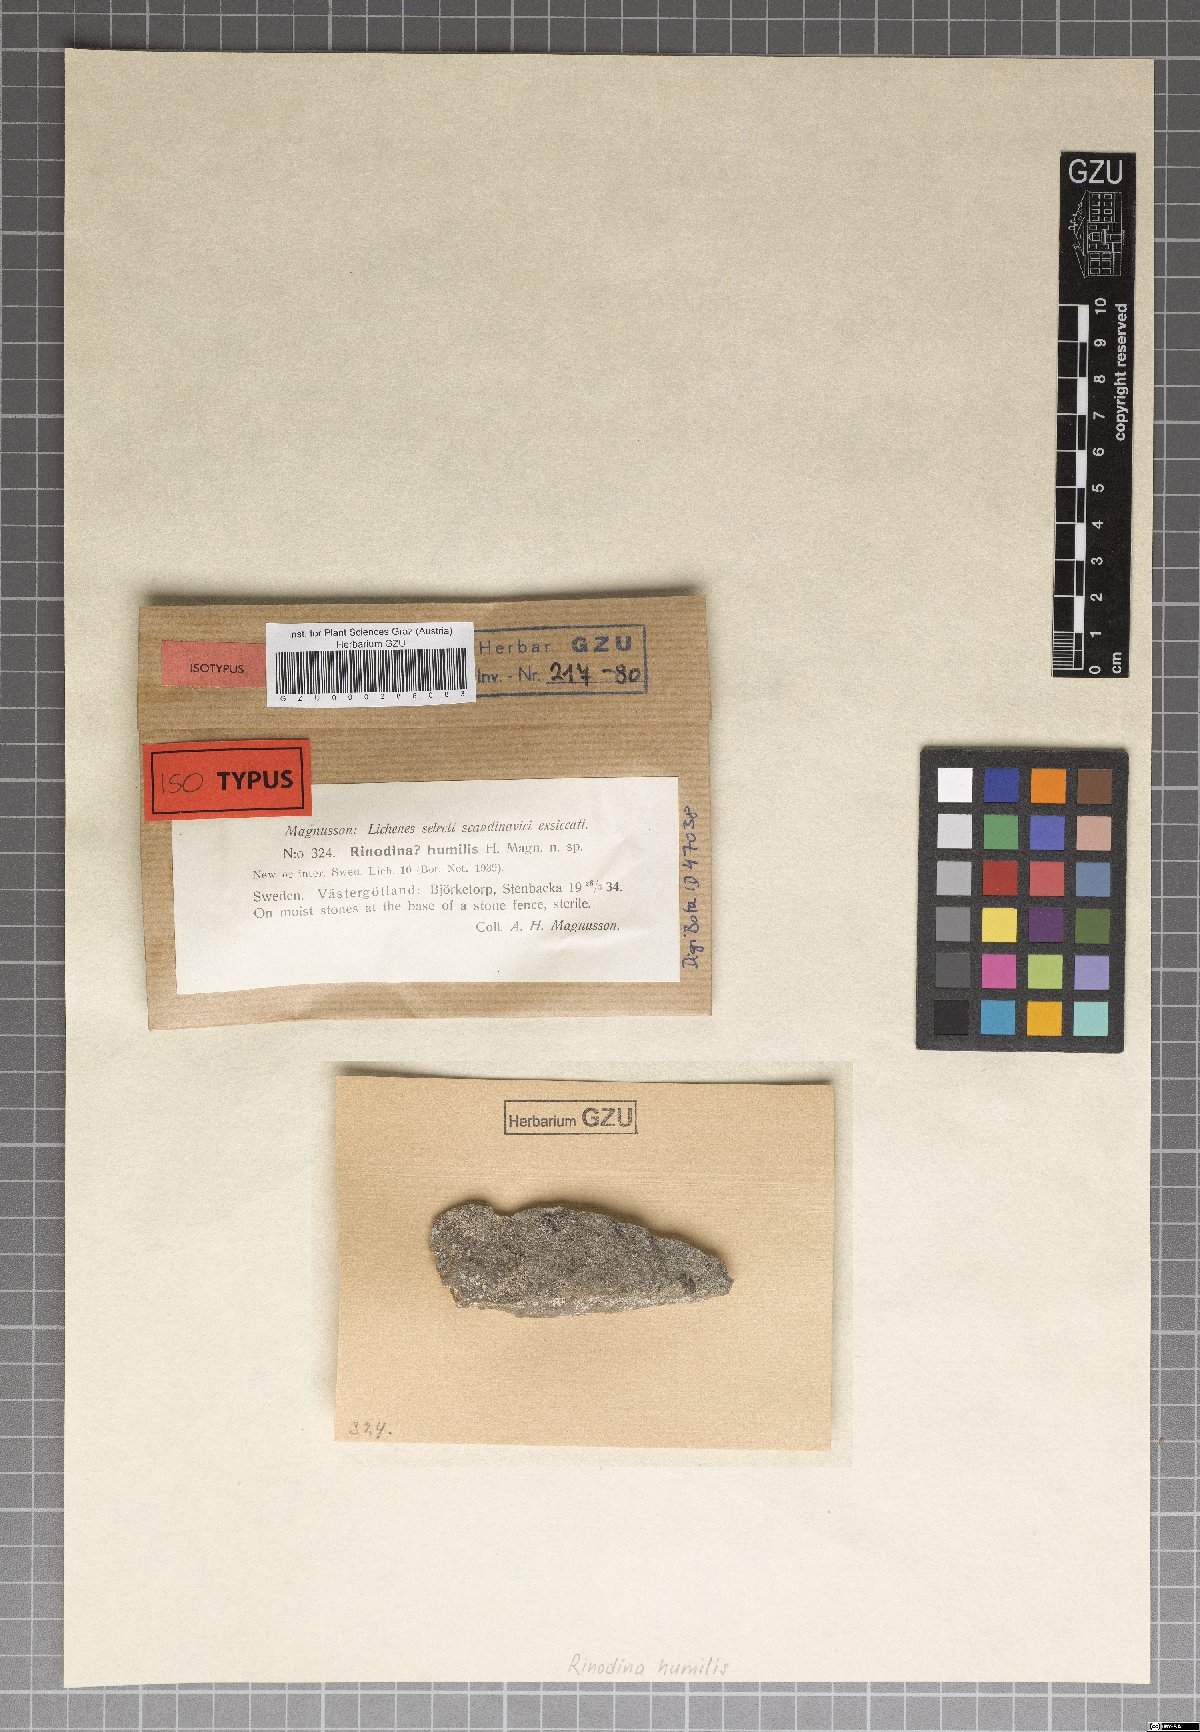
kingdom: Fungi
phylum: Ascomycota
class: Lecanoromycetes
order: Lecanorales
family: Ramalinaceae
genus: Cliostomum
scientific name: Cliostomum tenerum
